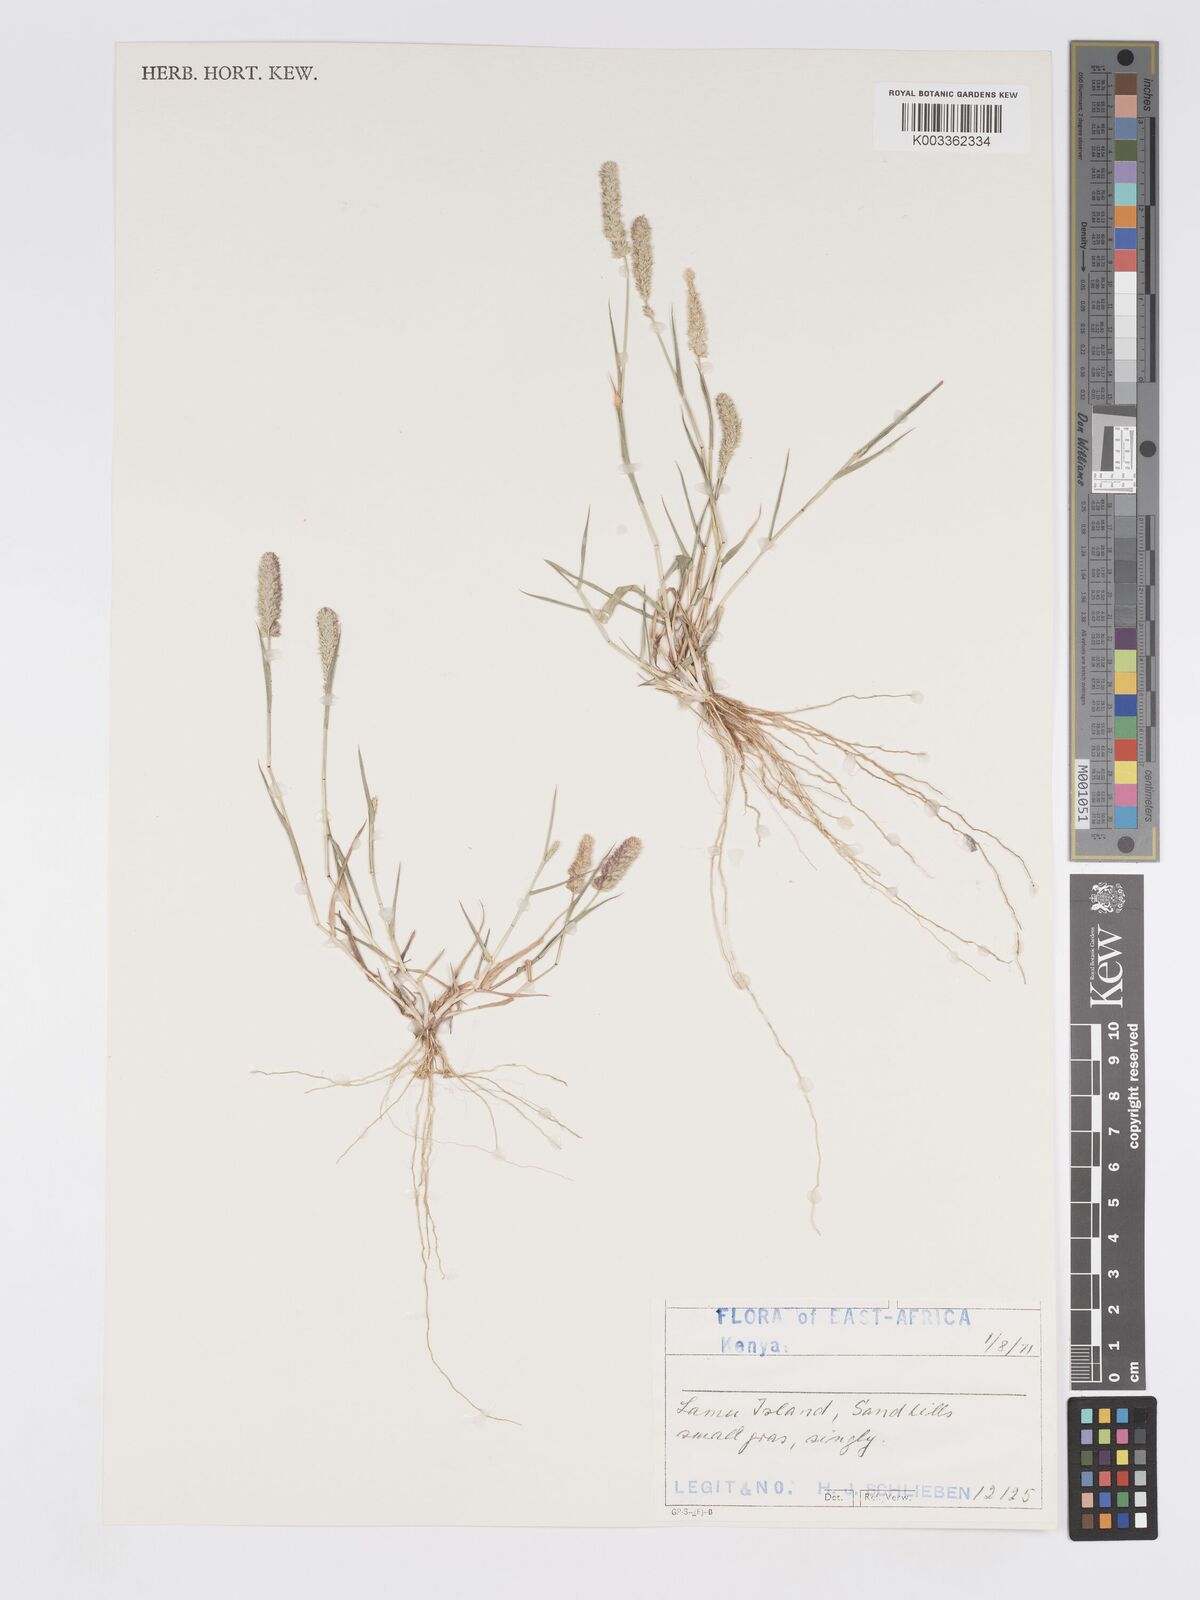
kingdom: Plantae
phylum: Tracheophyta
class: Liliopsida
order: Poales
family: Poaceae
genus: Eragrostis
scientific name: Eragrostis ciliaris
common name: Gophertail lovegrass
